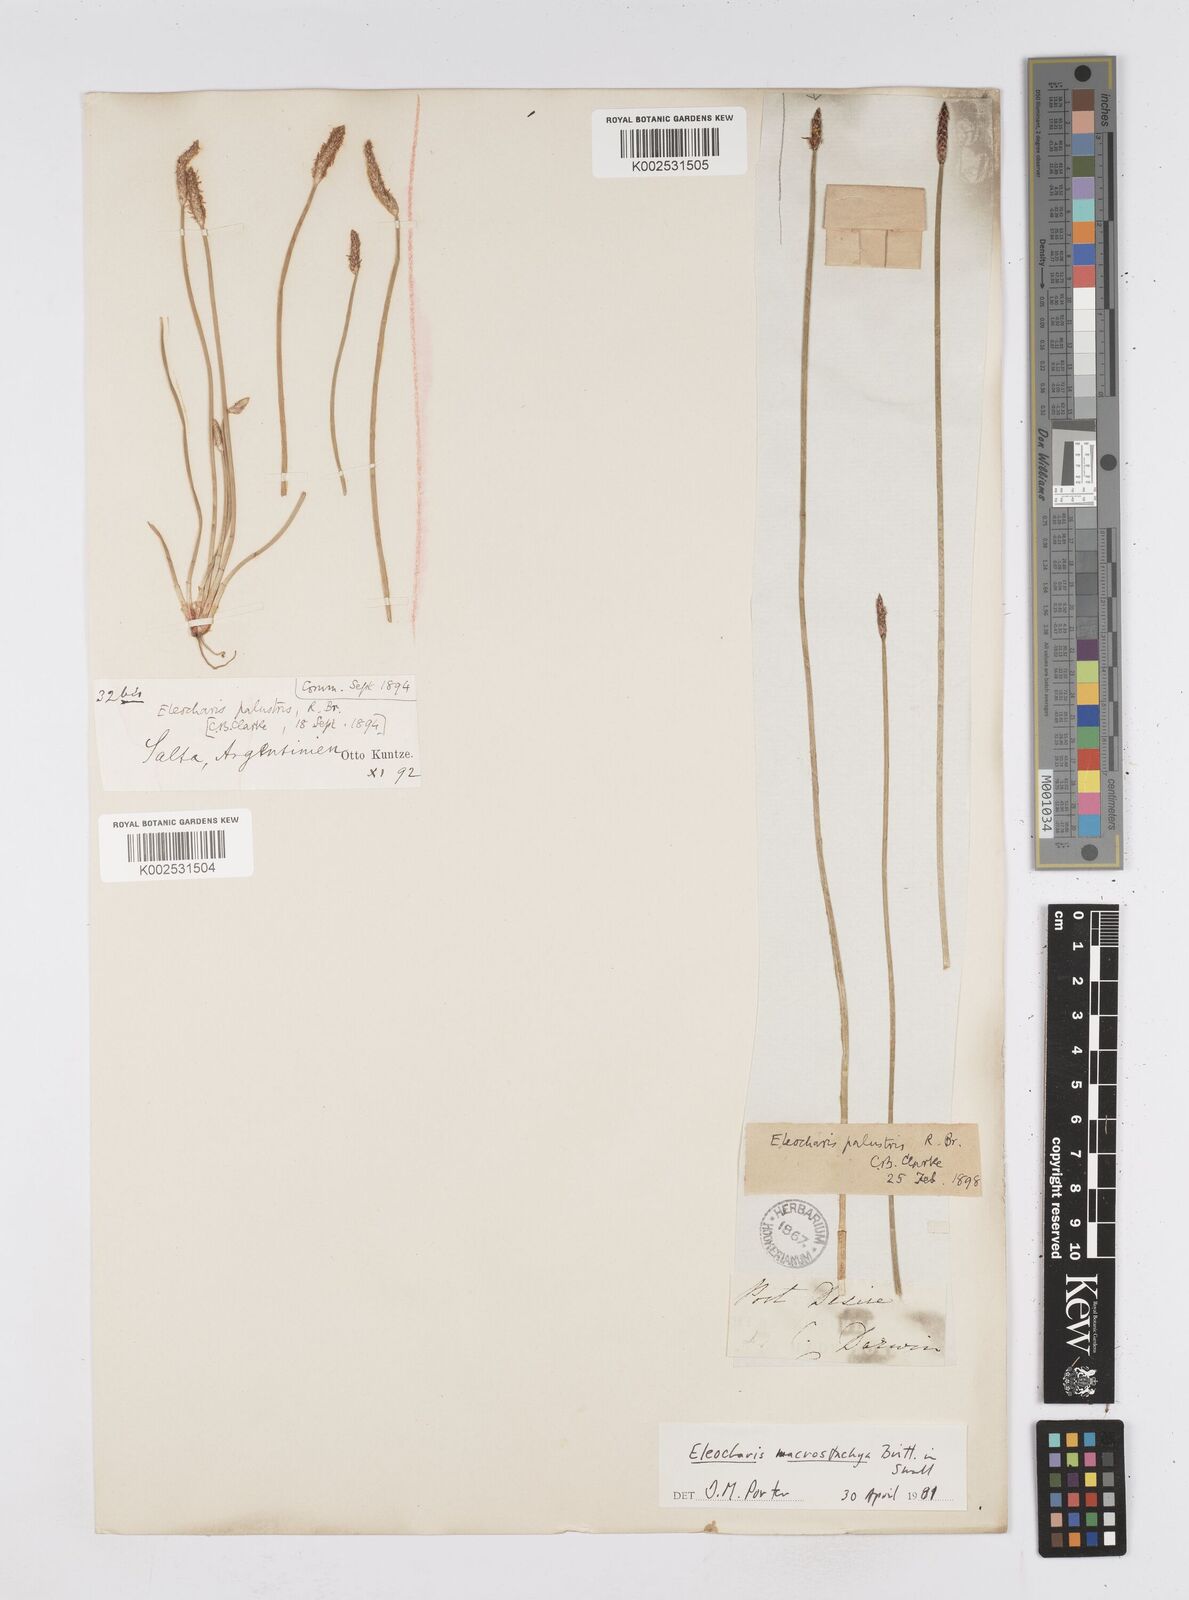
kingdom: Plantae
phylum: Tracheophyta
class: Liliopsida
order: Poales
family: Cyperaceae
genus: Eleocharis
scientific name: Eleocharis macrostachya
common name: Pale spikerush
